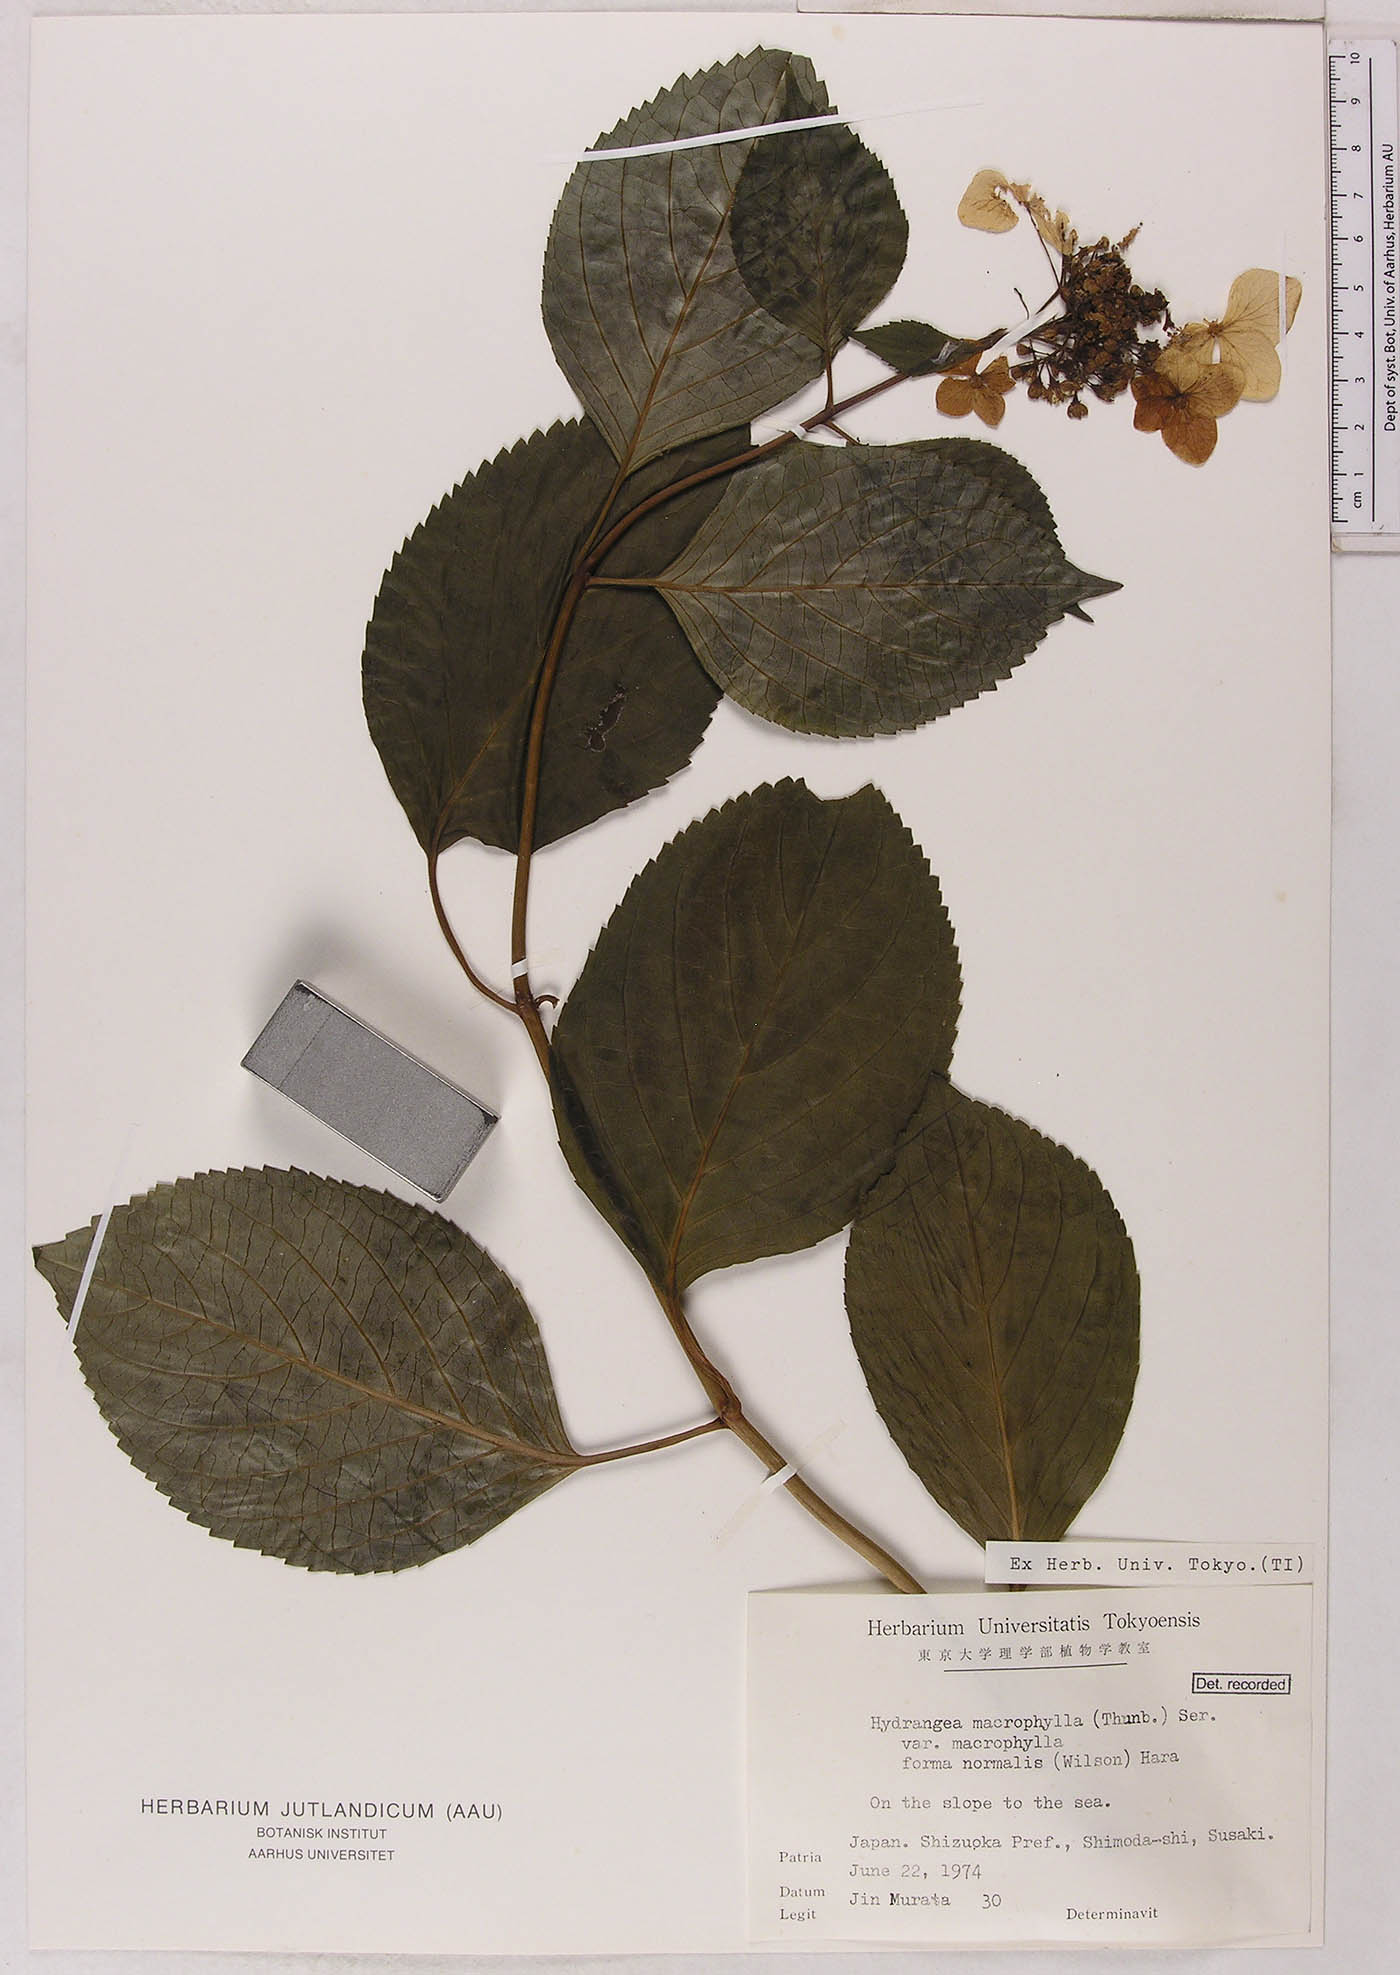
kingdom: Plantae
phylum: Tracheophyta
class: Magnoliopsida
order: Cornales
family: Hydrangeaceae
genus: Hydrangea
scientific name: Hydrangea macrophylla
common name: Hydrangea
